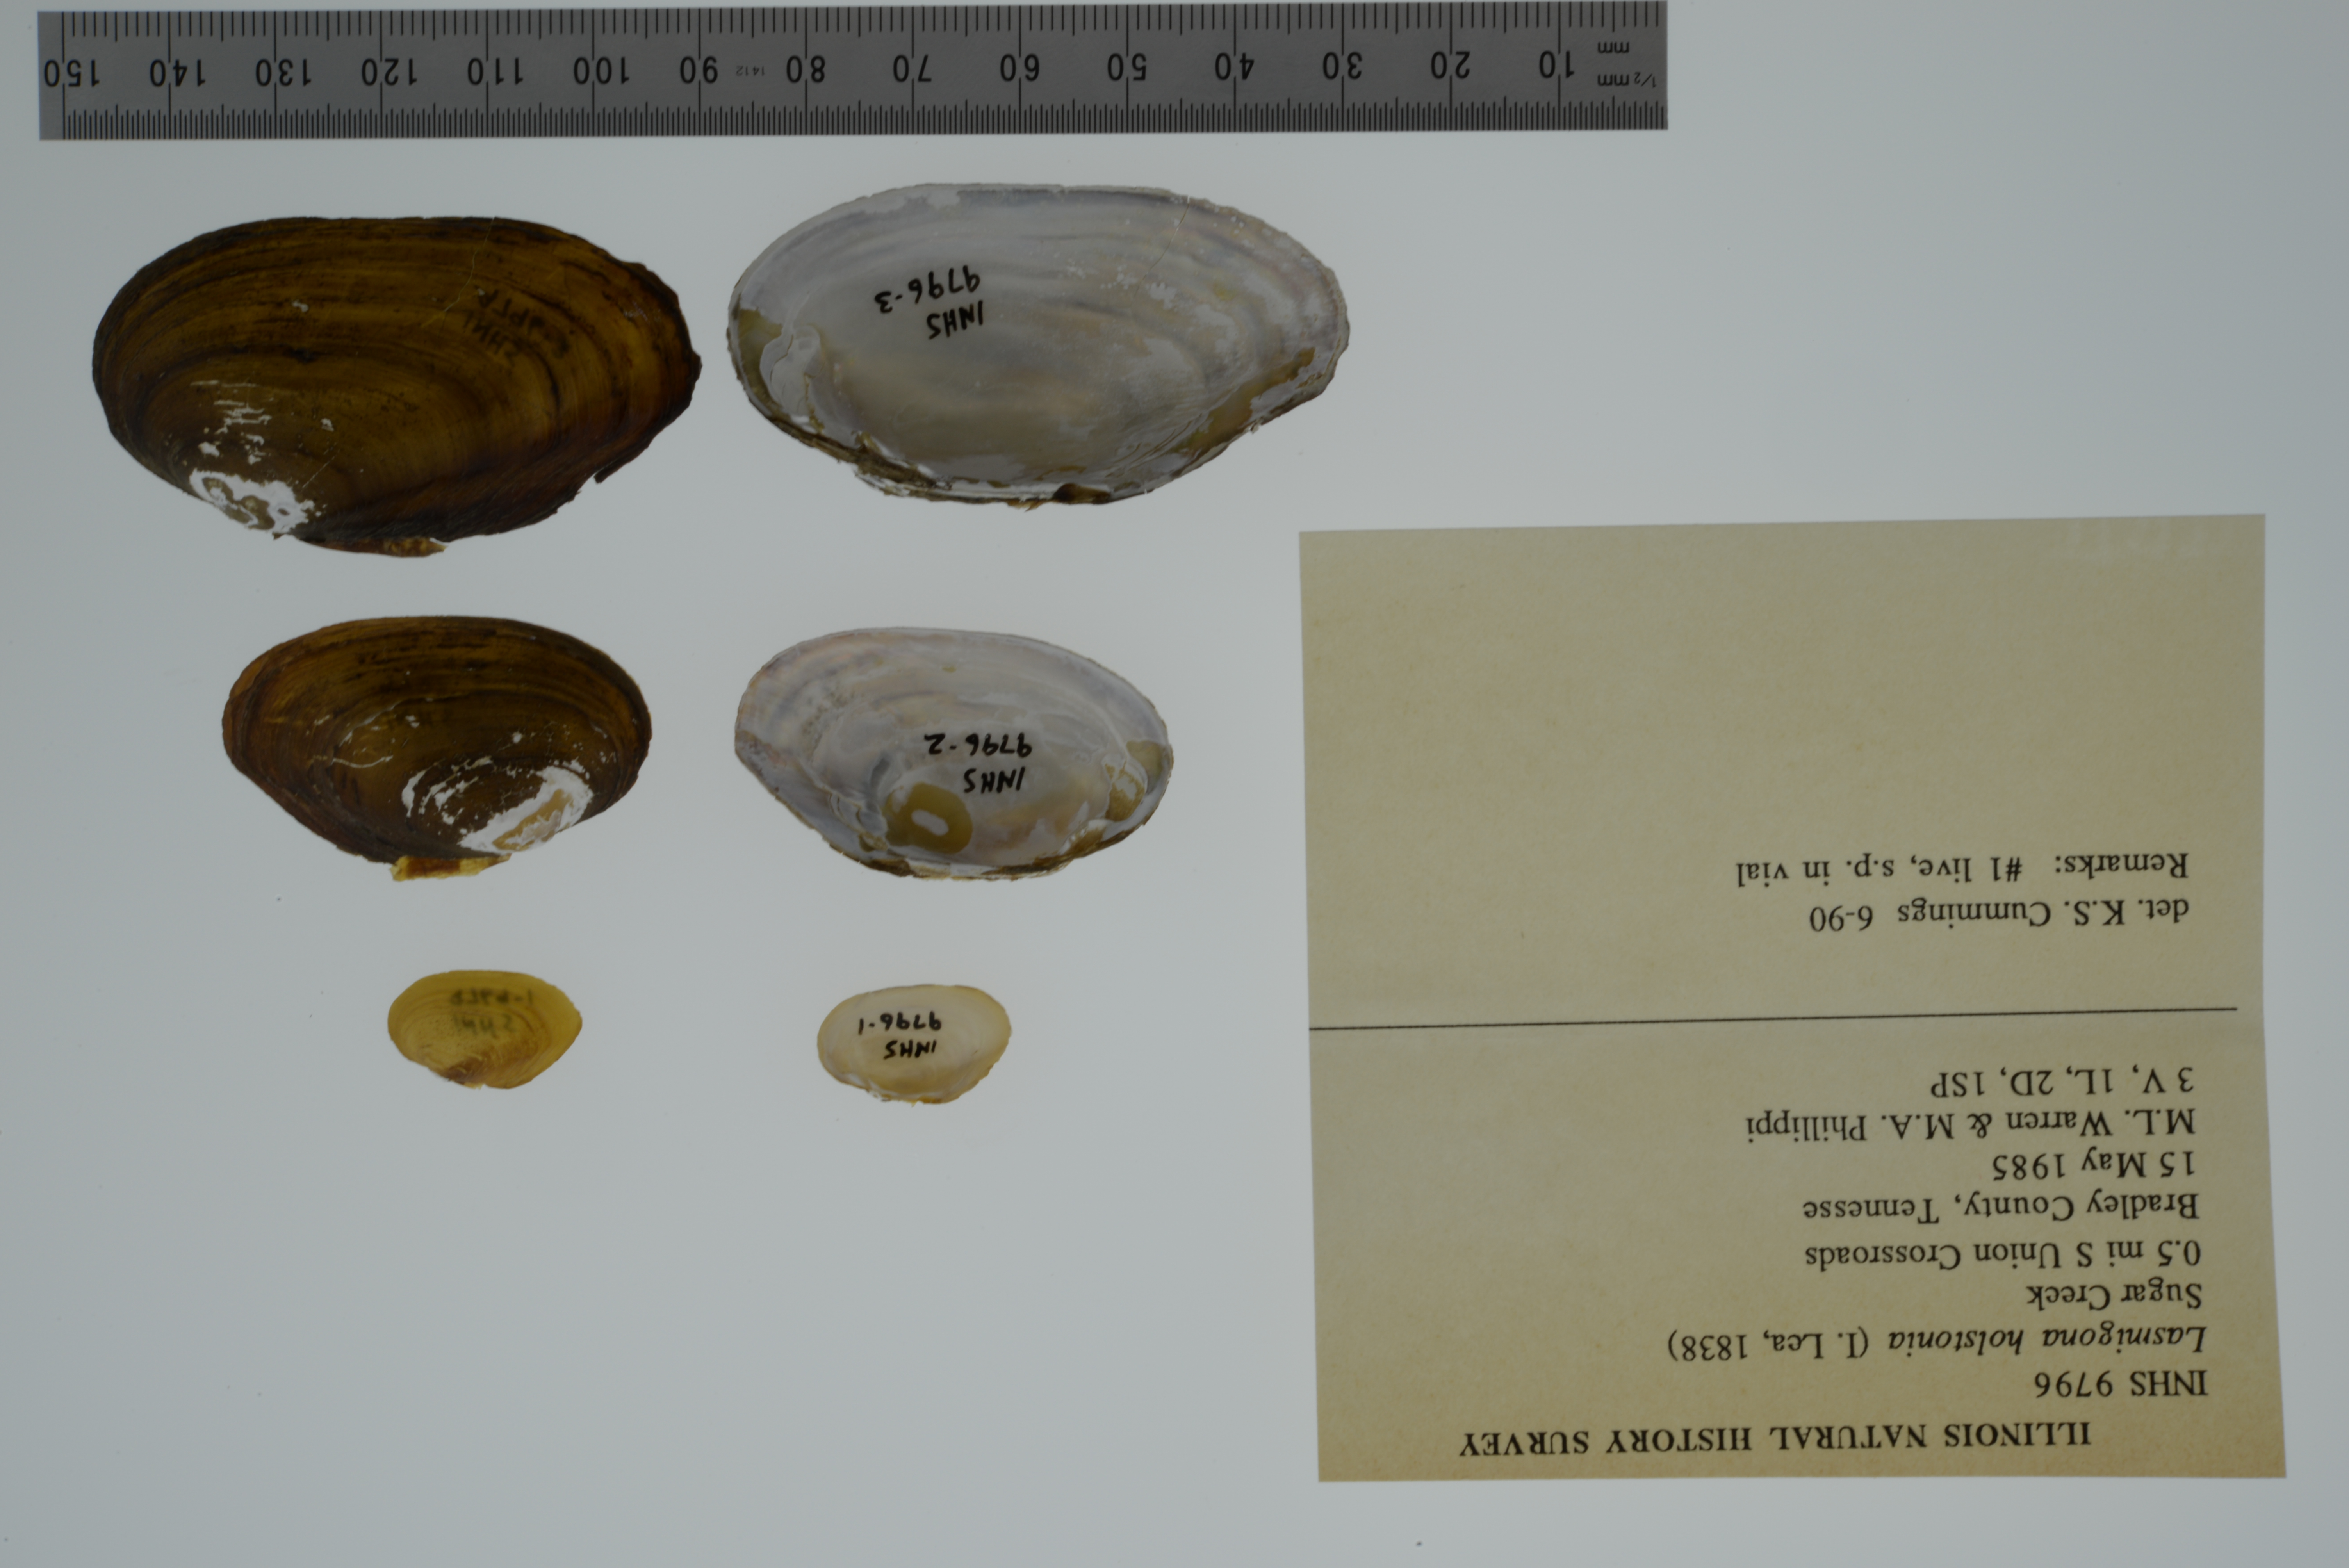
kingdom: Animalia
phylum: Mollusca
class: Bivalvia
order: Unionida
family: Unionidae
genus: Lasmigona
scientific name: Lasmigona holstonia
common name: Tennessee heelsplitter
